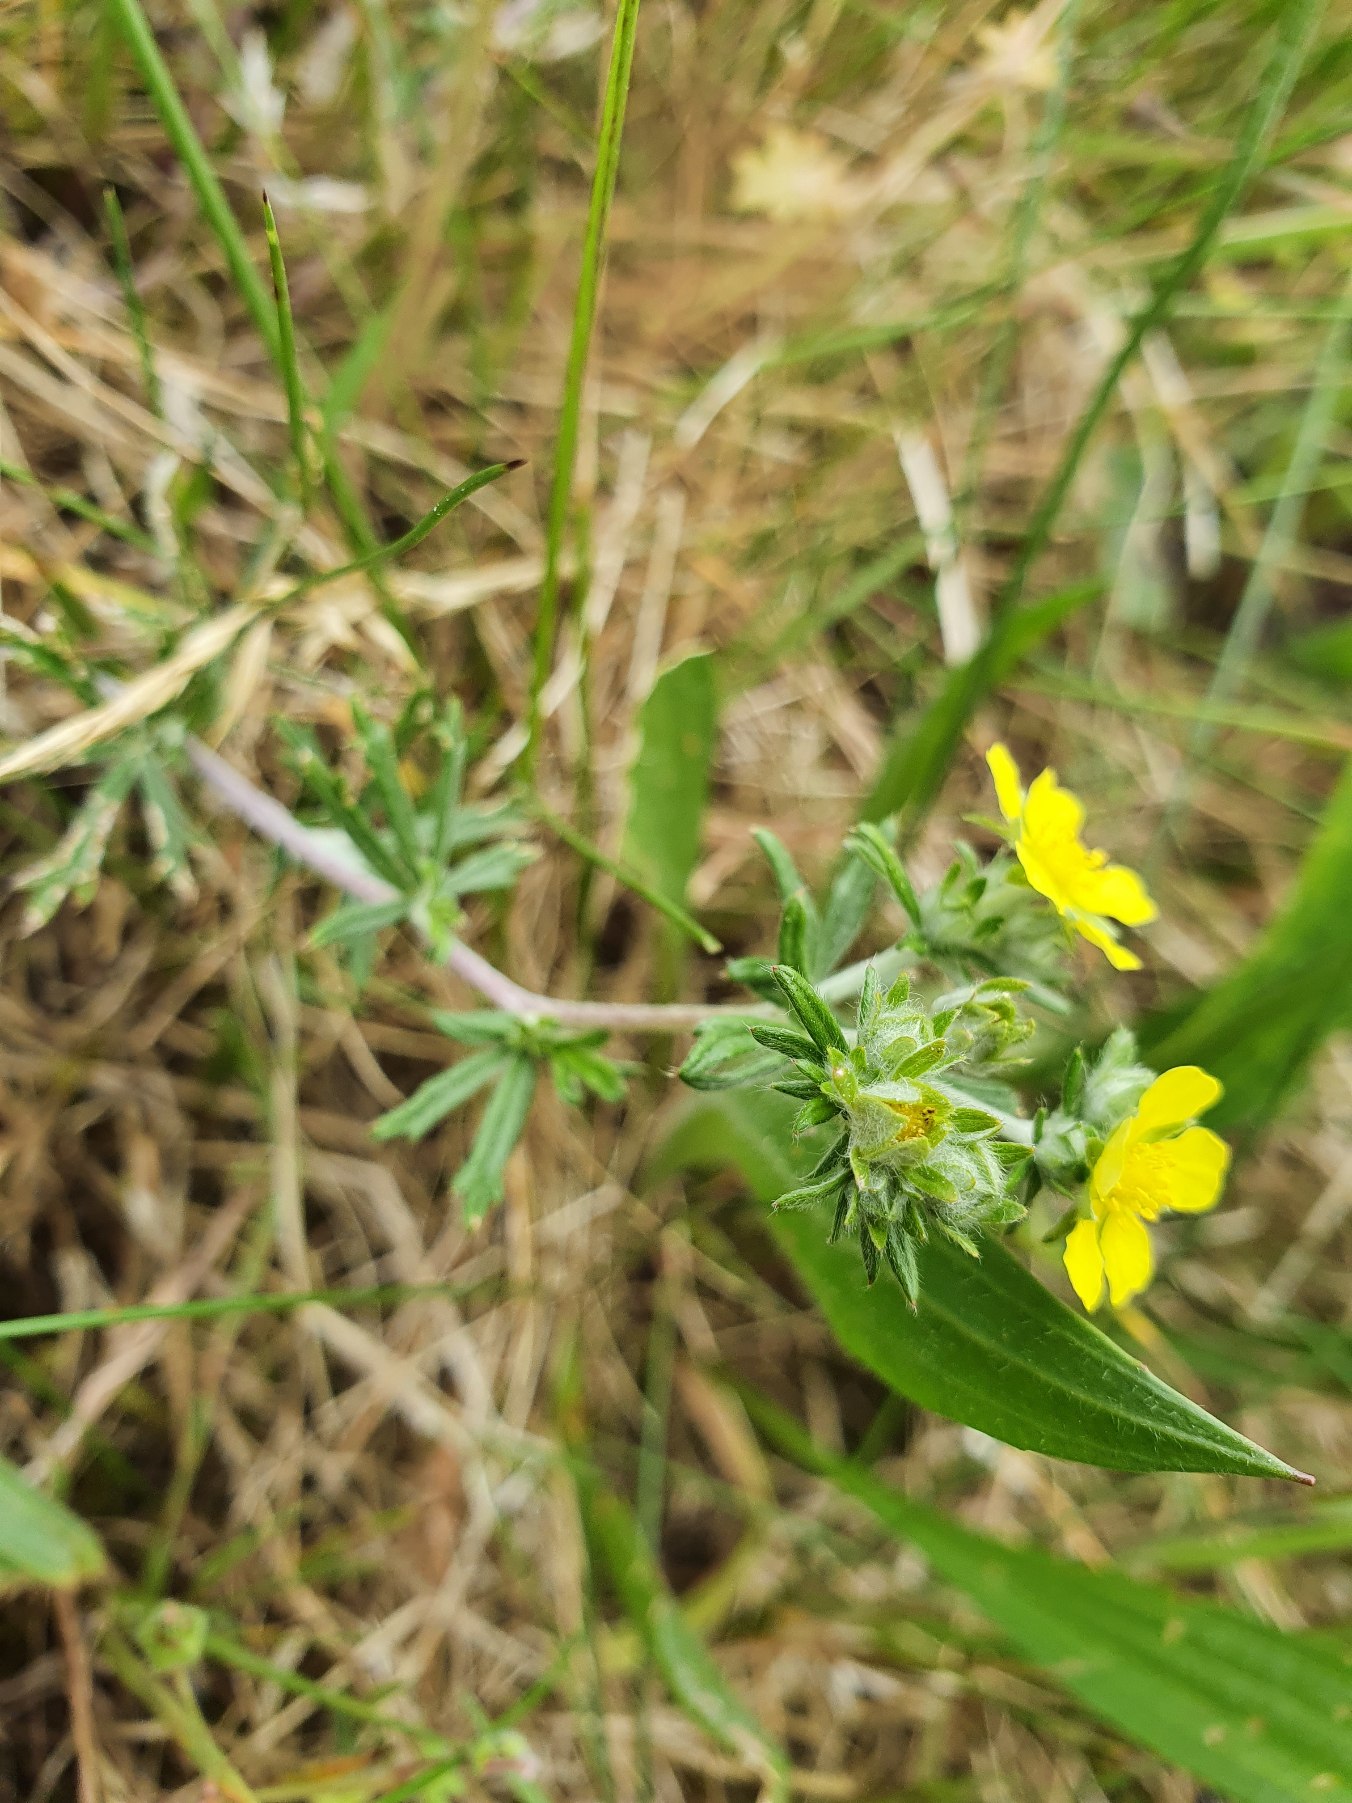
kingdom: Plantae
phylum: Tracheophyta
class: Magnoliopsida
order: Rosales
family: Rosaceae
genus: Potentilla
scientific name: Potentilla argentea
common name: Sølv-potentil
